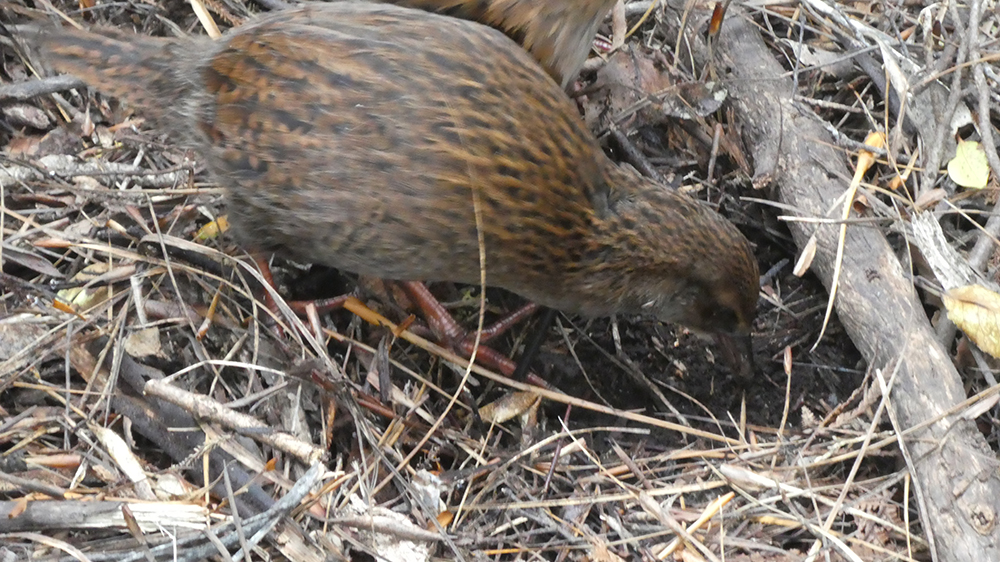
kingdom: Animalia
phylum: Chordata
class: Aves
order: Gruiformes
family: Rallidae
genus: Gallirallus
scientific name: Gallirallus australis
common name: Weka
